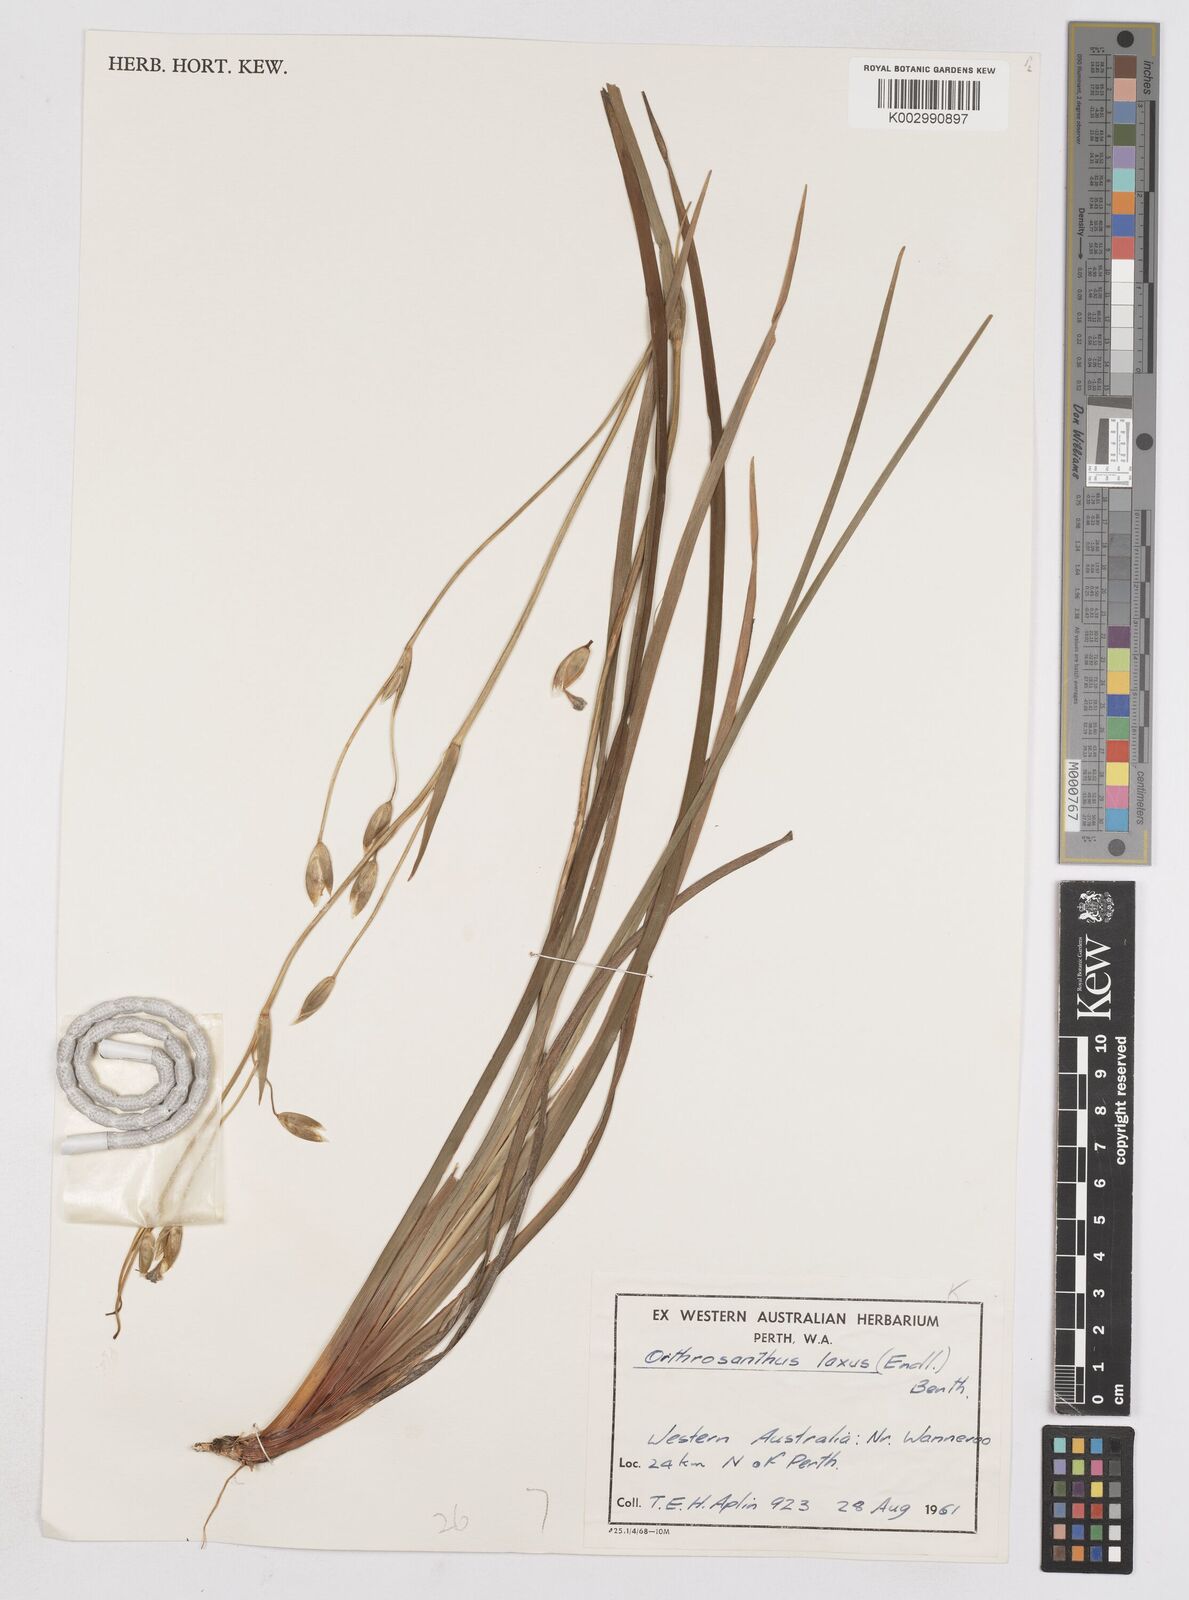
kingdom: Plantae
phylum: Tracheophyta
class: Liliopsida
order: Asparagales
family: Iridaceae
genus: Orthrosanthus
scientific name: Orthrosanthus laxus
